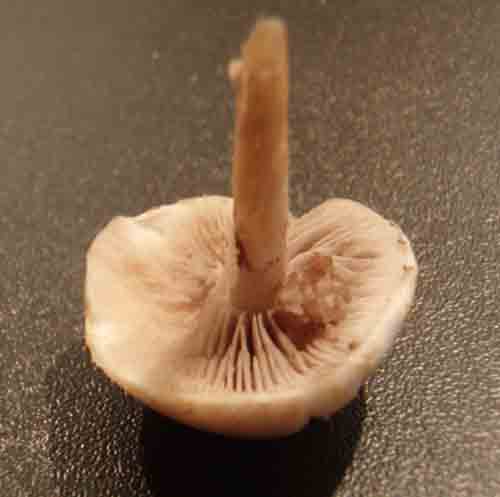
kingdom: Fungi
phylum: Basidiomycota
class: Agaricomycetes
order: Agaricales
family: Strophariaceae
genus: Agrocybe
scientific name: Agrocybe praecox
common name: tidlig agerhat
